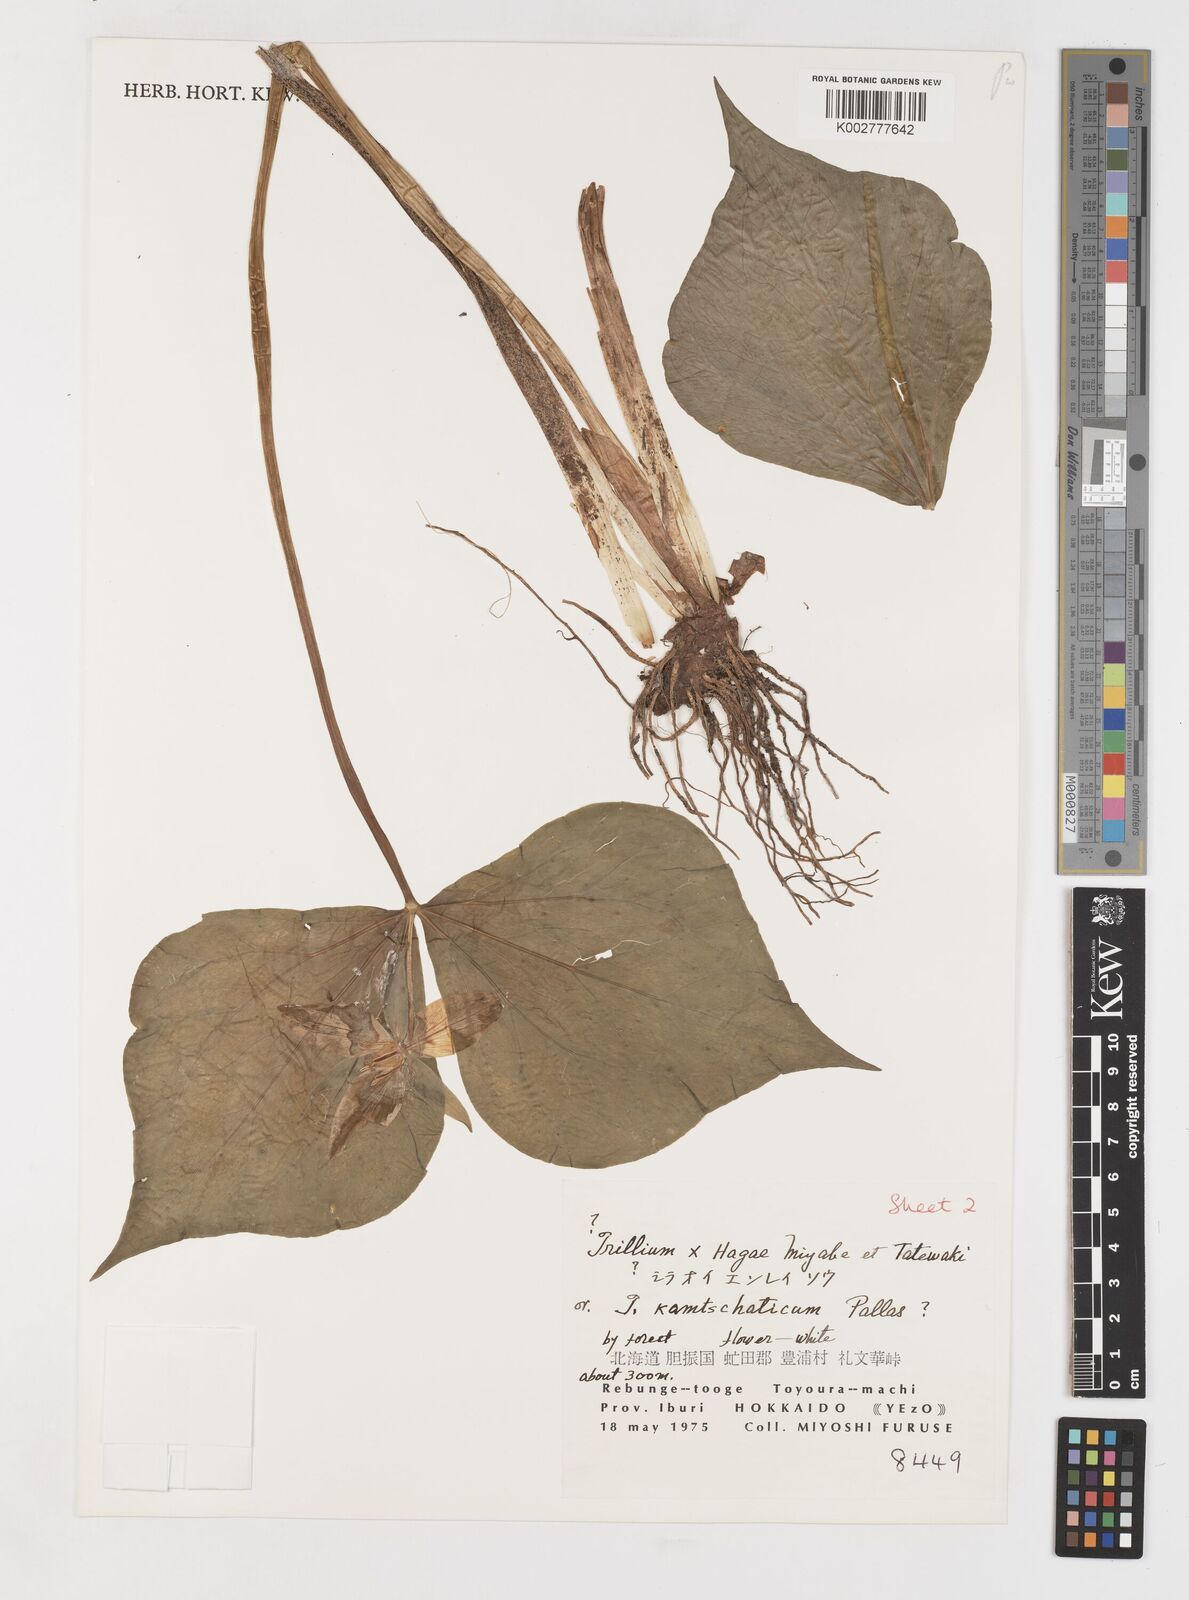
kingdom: Plantae
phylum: Tracheophyta
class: Liliopsida
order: Liliales
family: Melanthiaceae
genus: Trillium
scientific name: Trillium hagae
